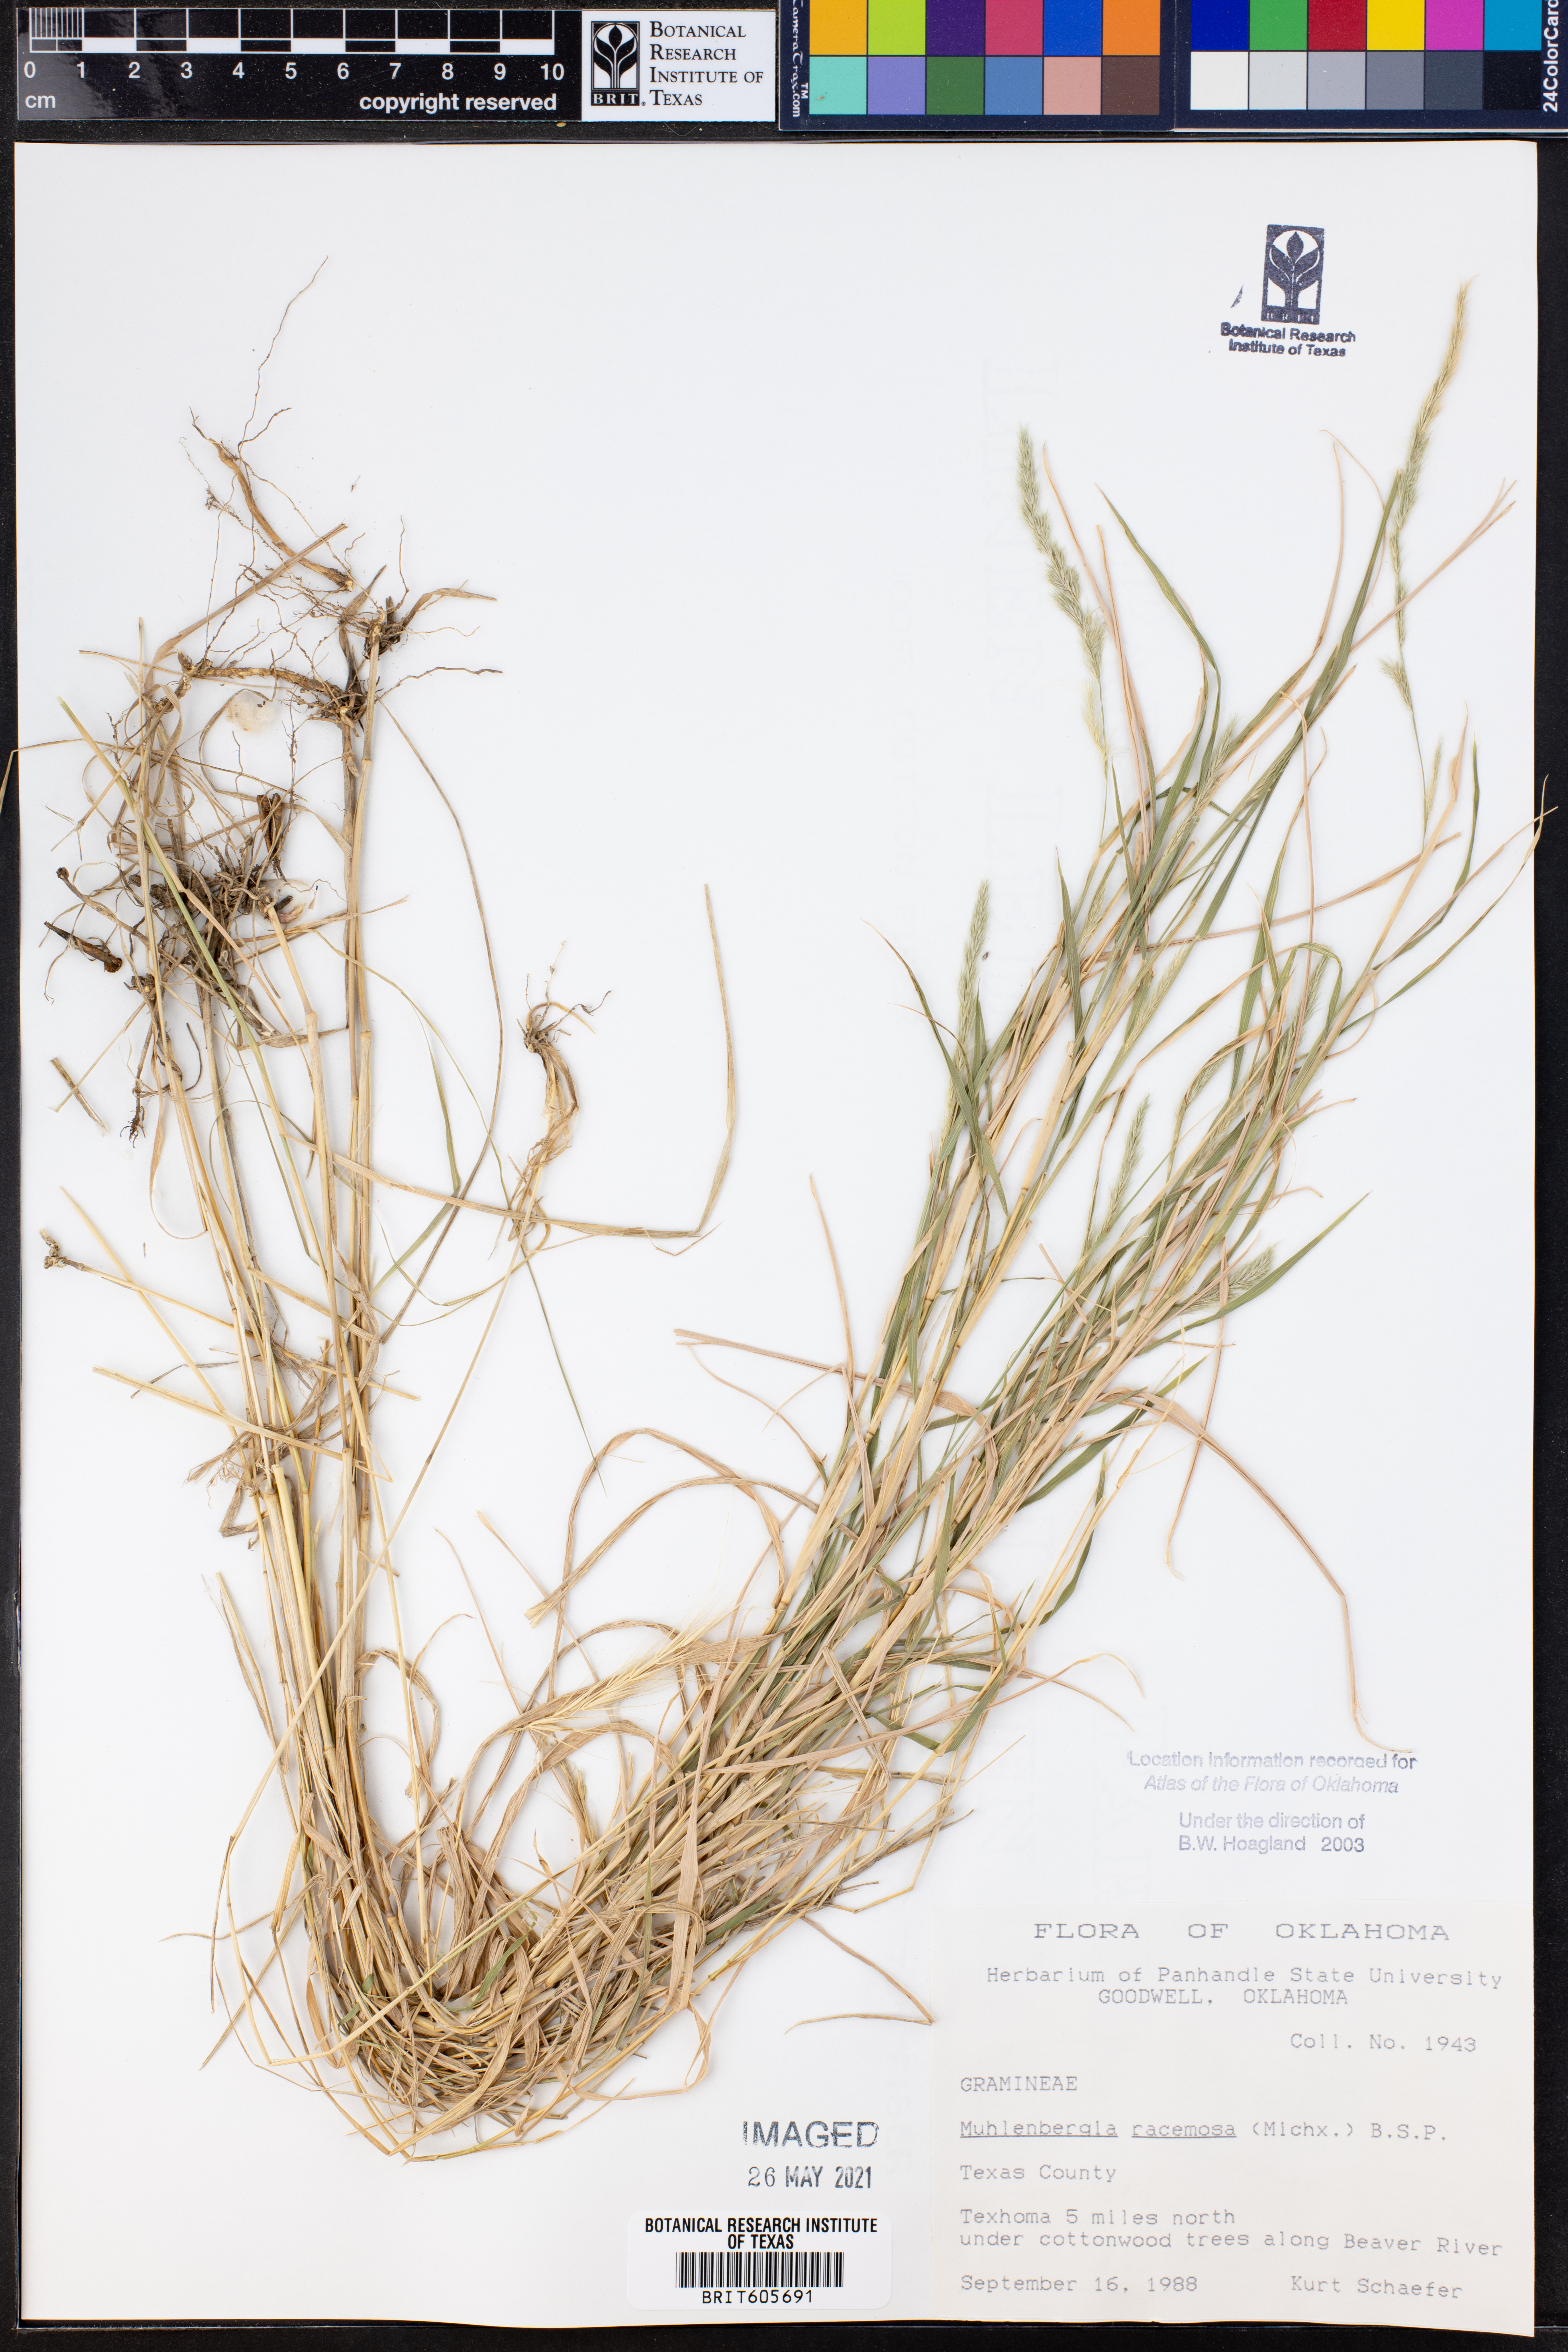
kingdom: Plantae
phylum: Tracheophyta
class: Liliopsida
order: Poales
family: Poaceae
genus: Muhlenbergia
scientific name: Muhlenbergia racemosa
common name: Green muhly
